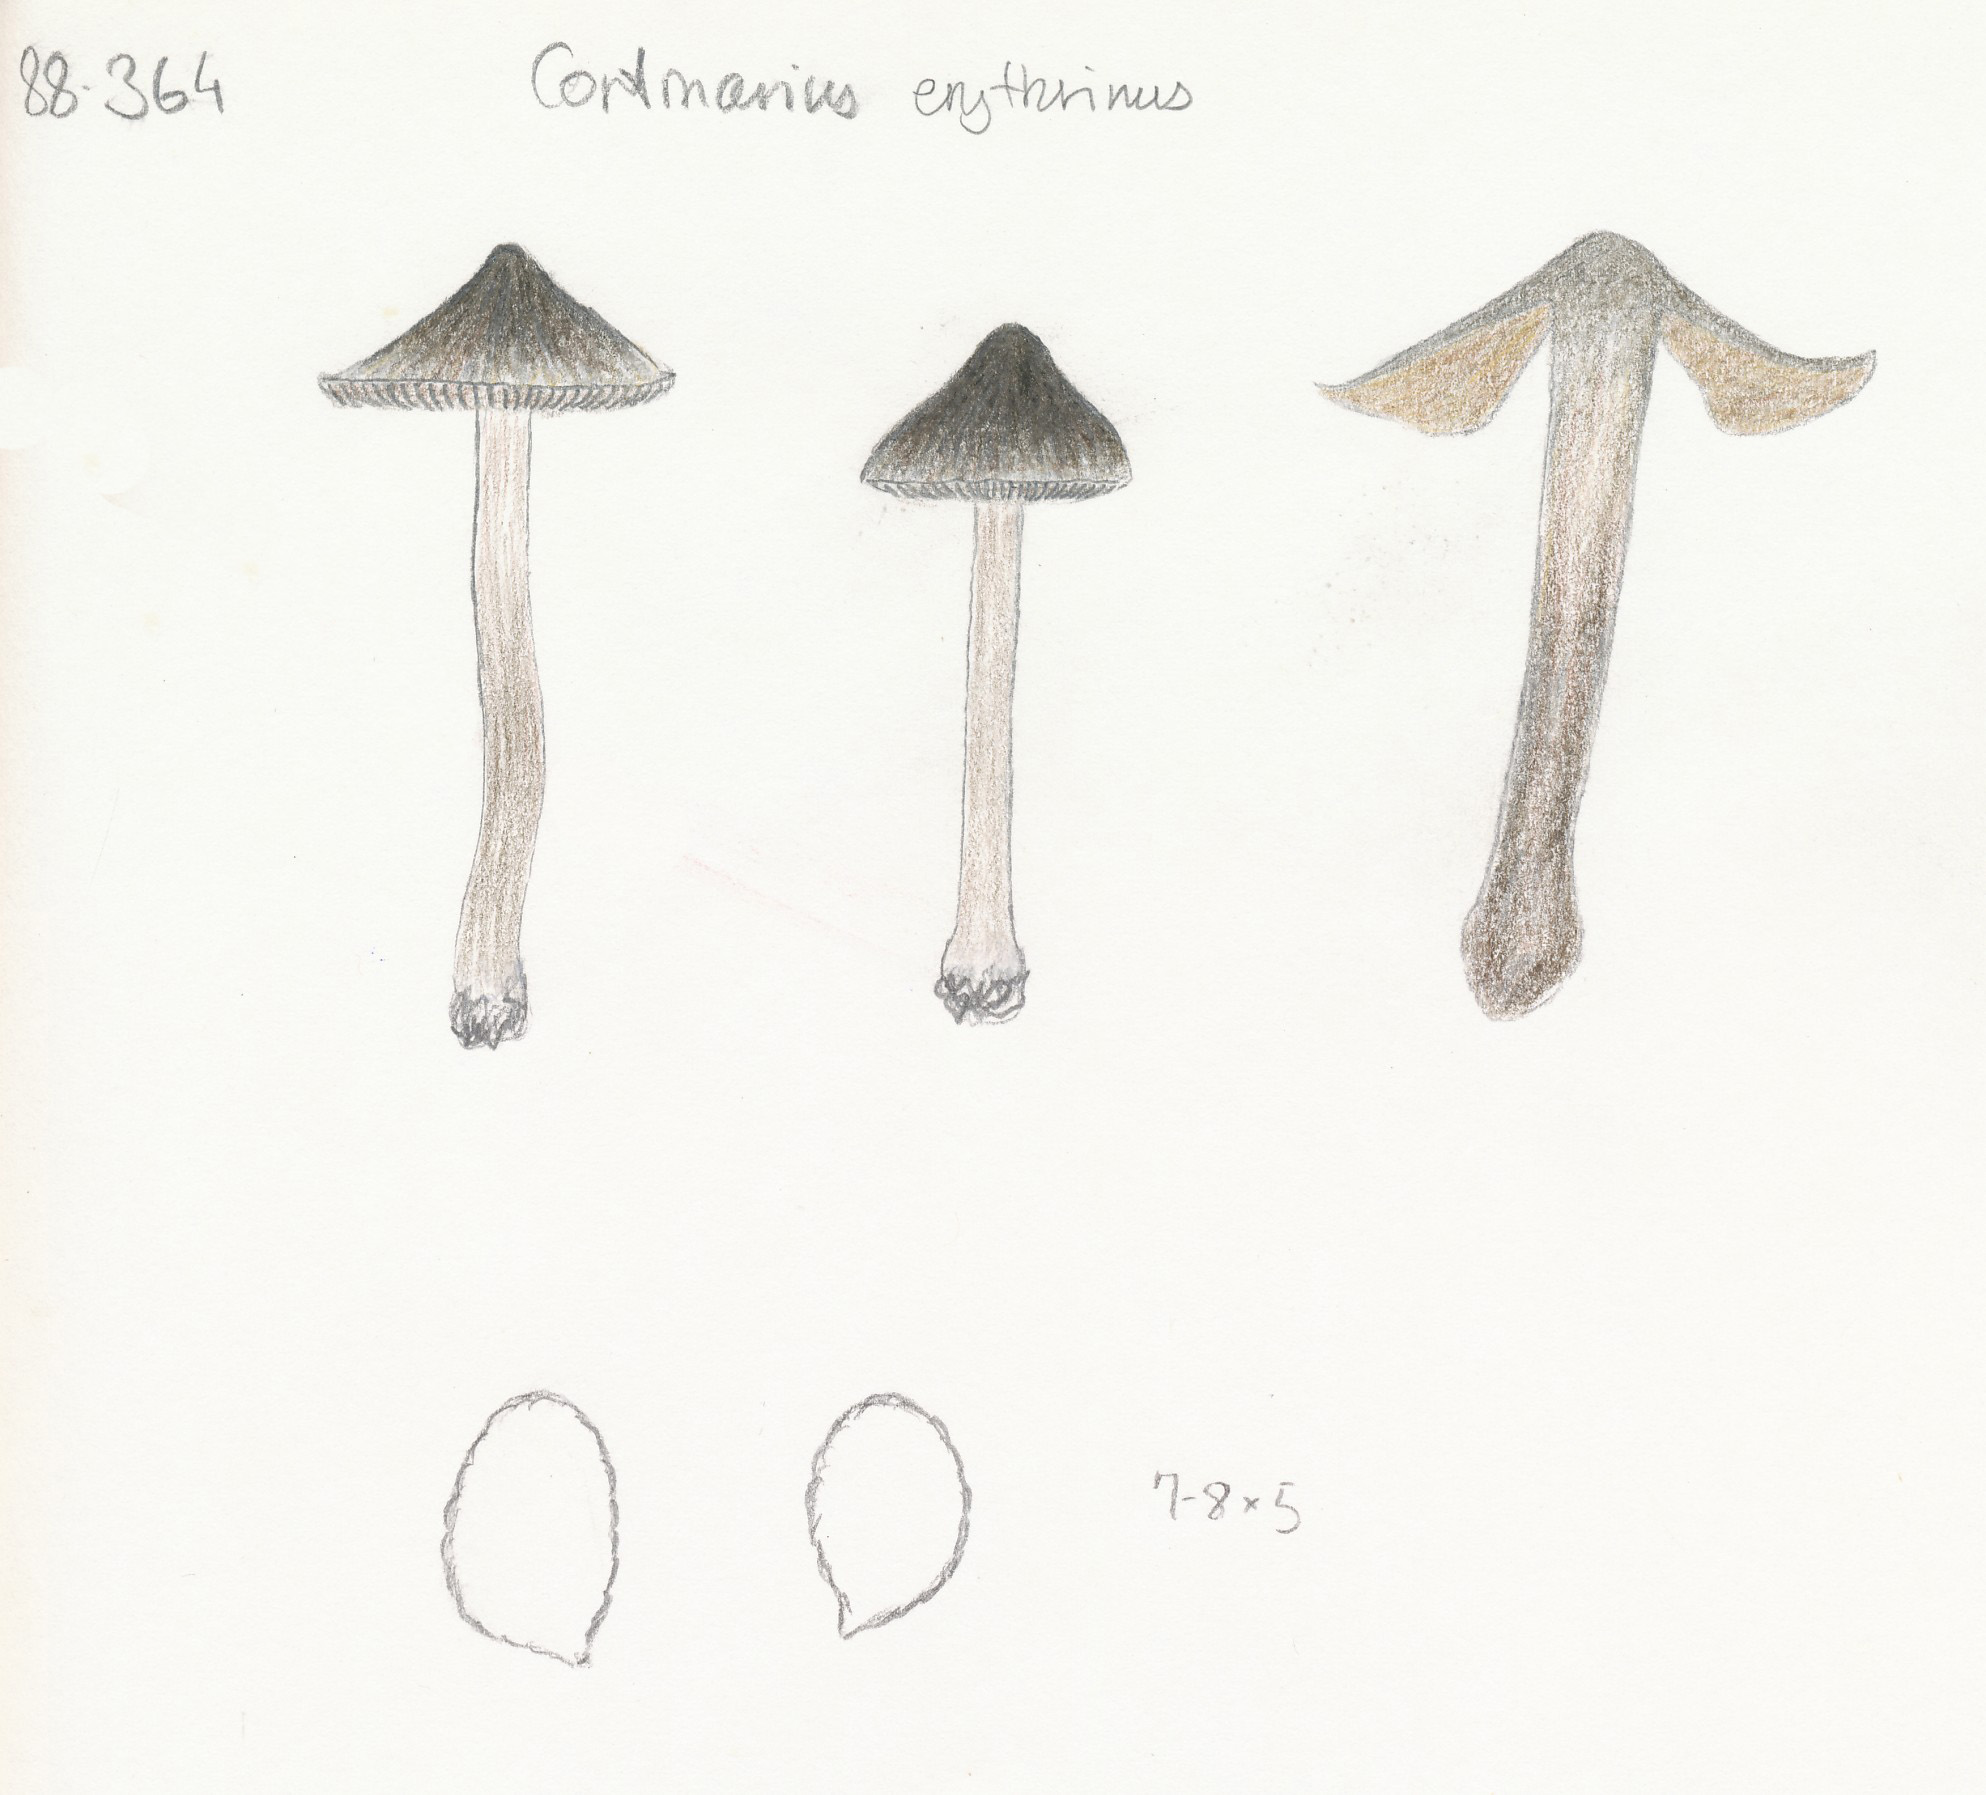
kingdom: Fungi
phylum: Basidiomycota
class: Agaricomycetes
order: Agaricales
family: Cortinariaceae
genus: Cortinarius
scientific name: Cortinarius vernus
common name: sommer-slørhat
